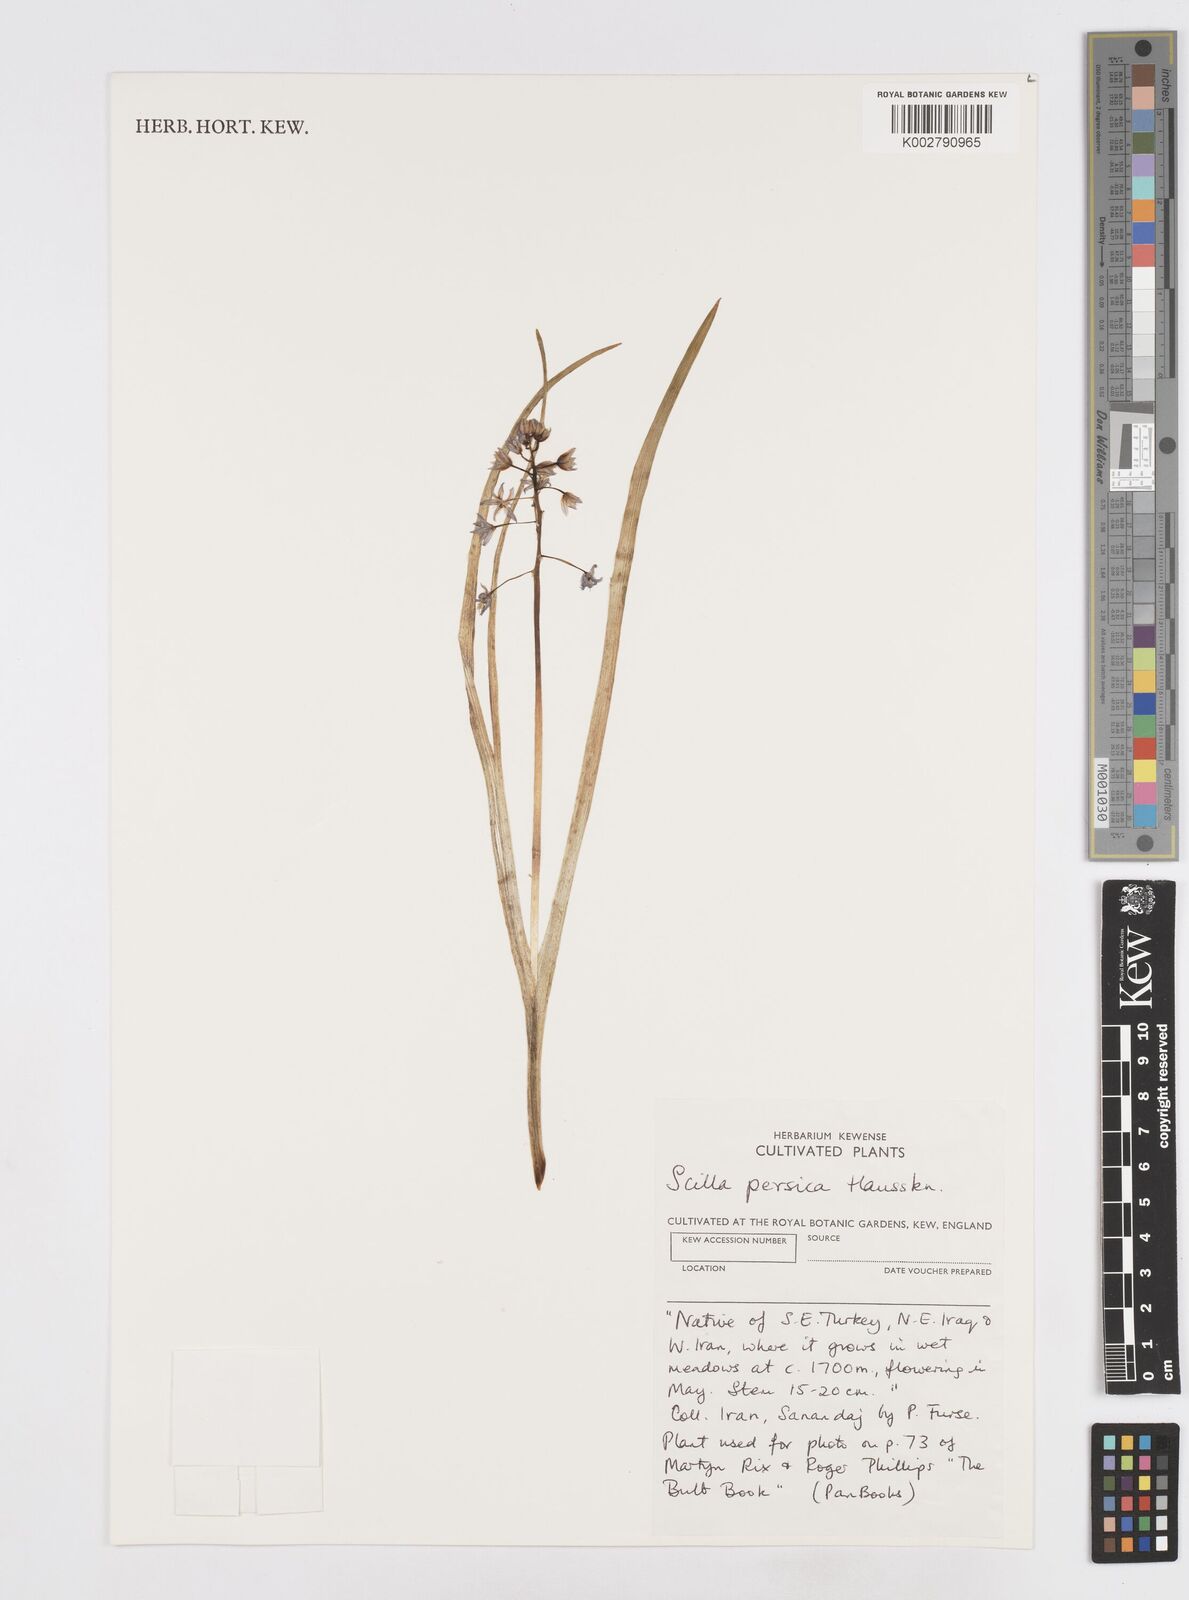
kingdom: Plantae
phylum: Tracheophyta
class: Liliopsida
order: Asparagales
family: Asparagaceae
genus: Zagrosia
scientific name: Zagrosia persica
